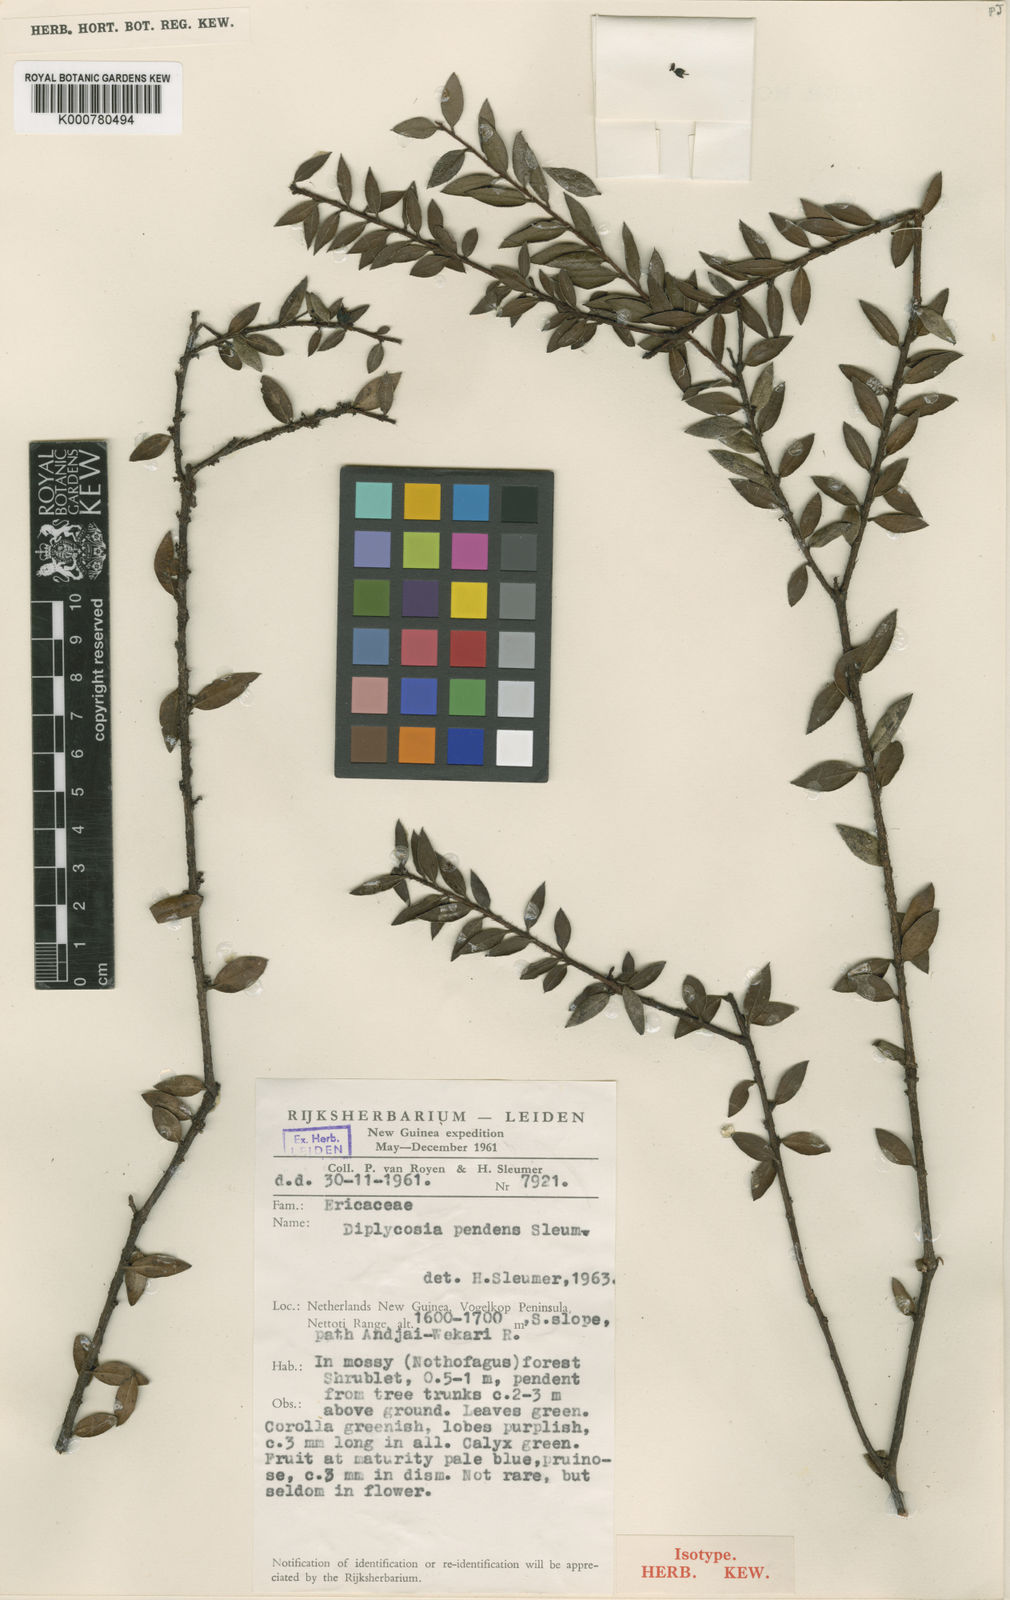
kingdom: Plantae
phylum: Tracheophyta
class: Magnoliopsida
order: Ericales
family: Ericaceae
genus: Gaultheria
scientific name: Gaultheria pendens
